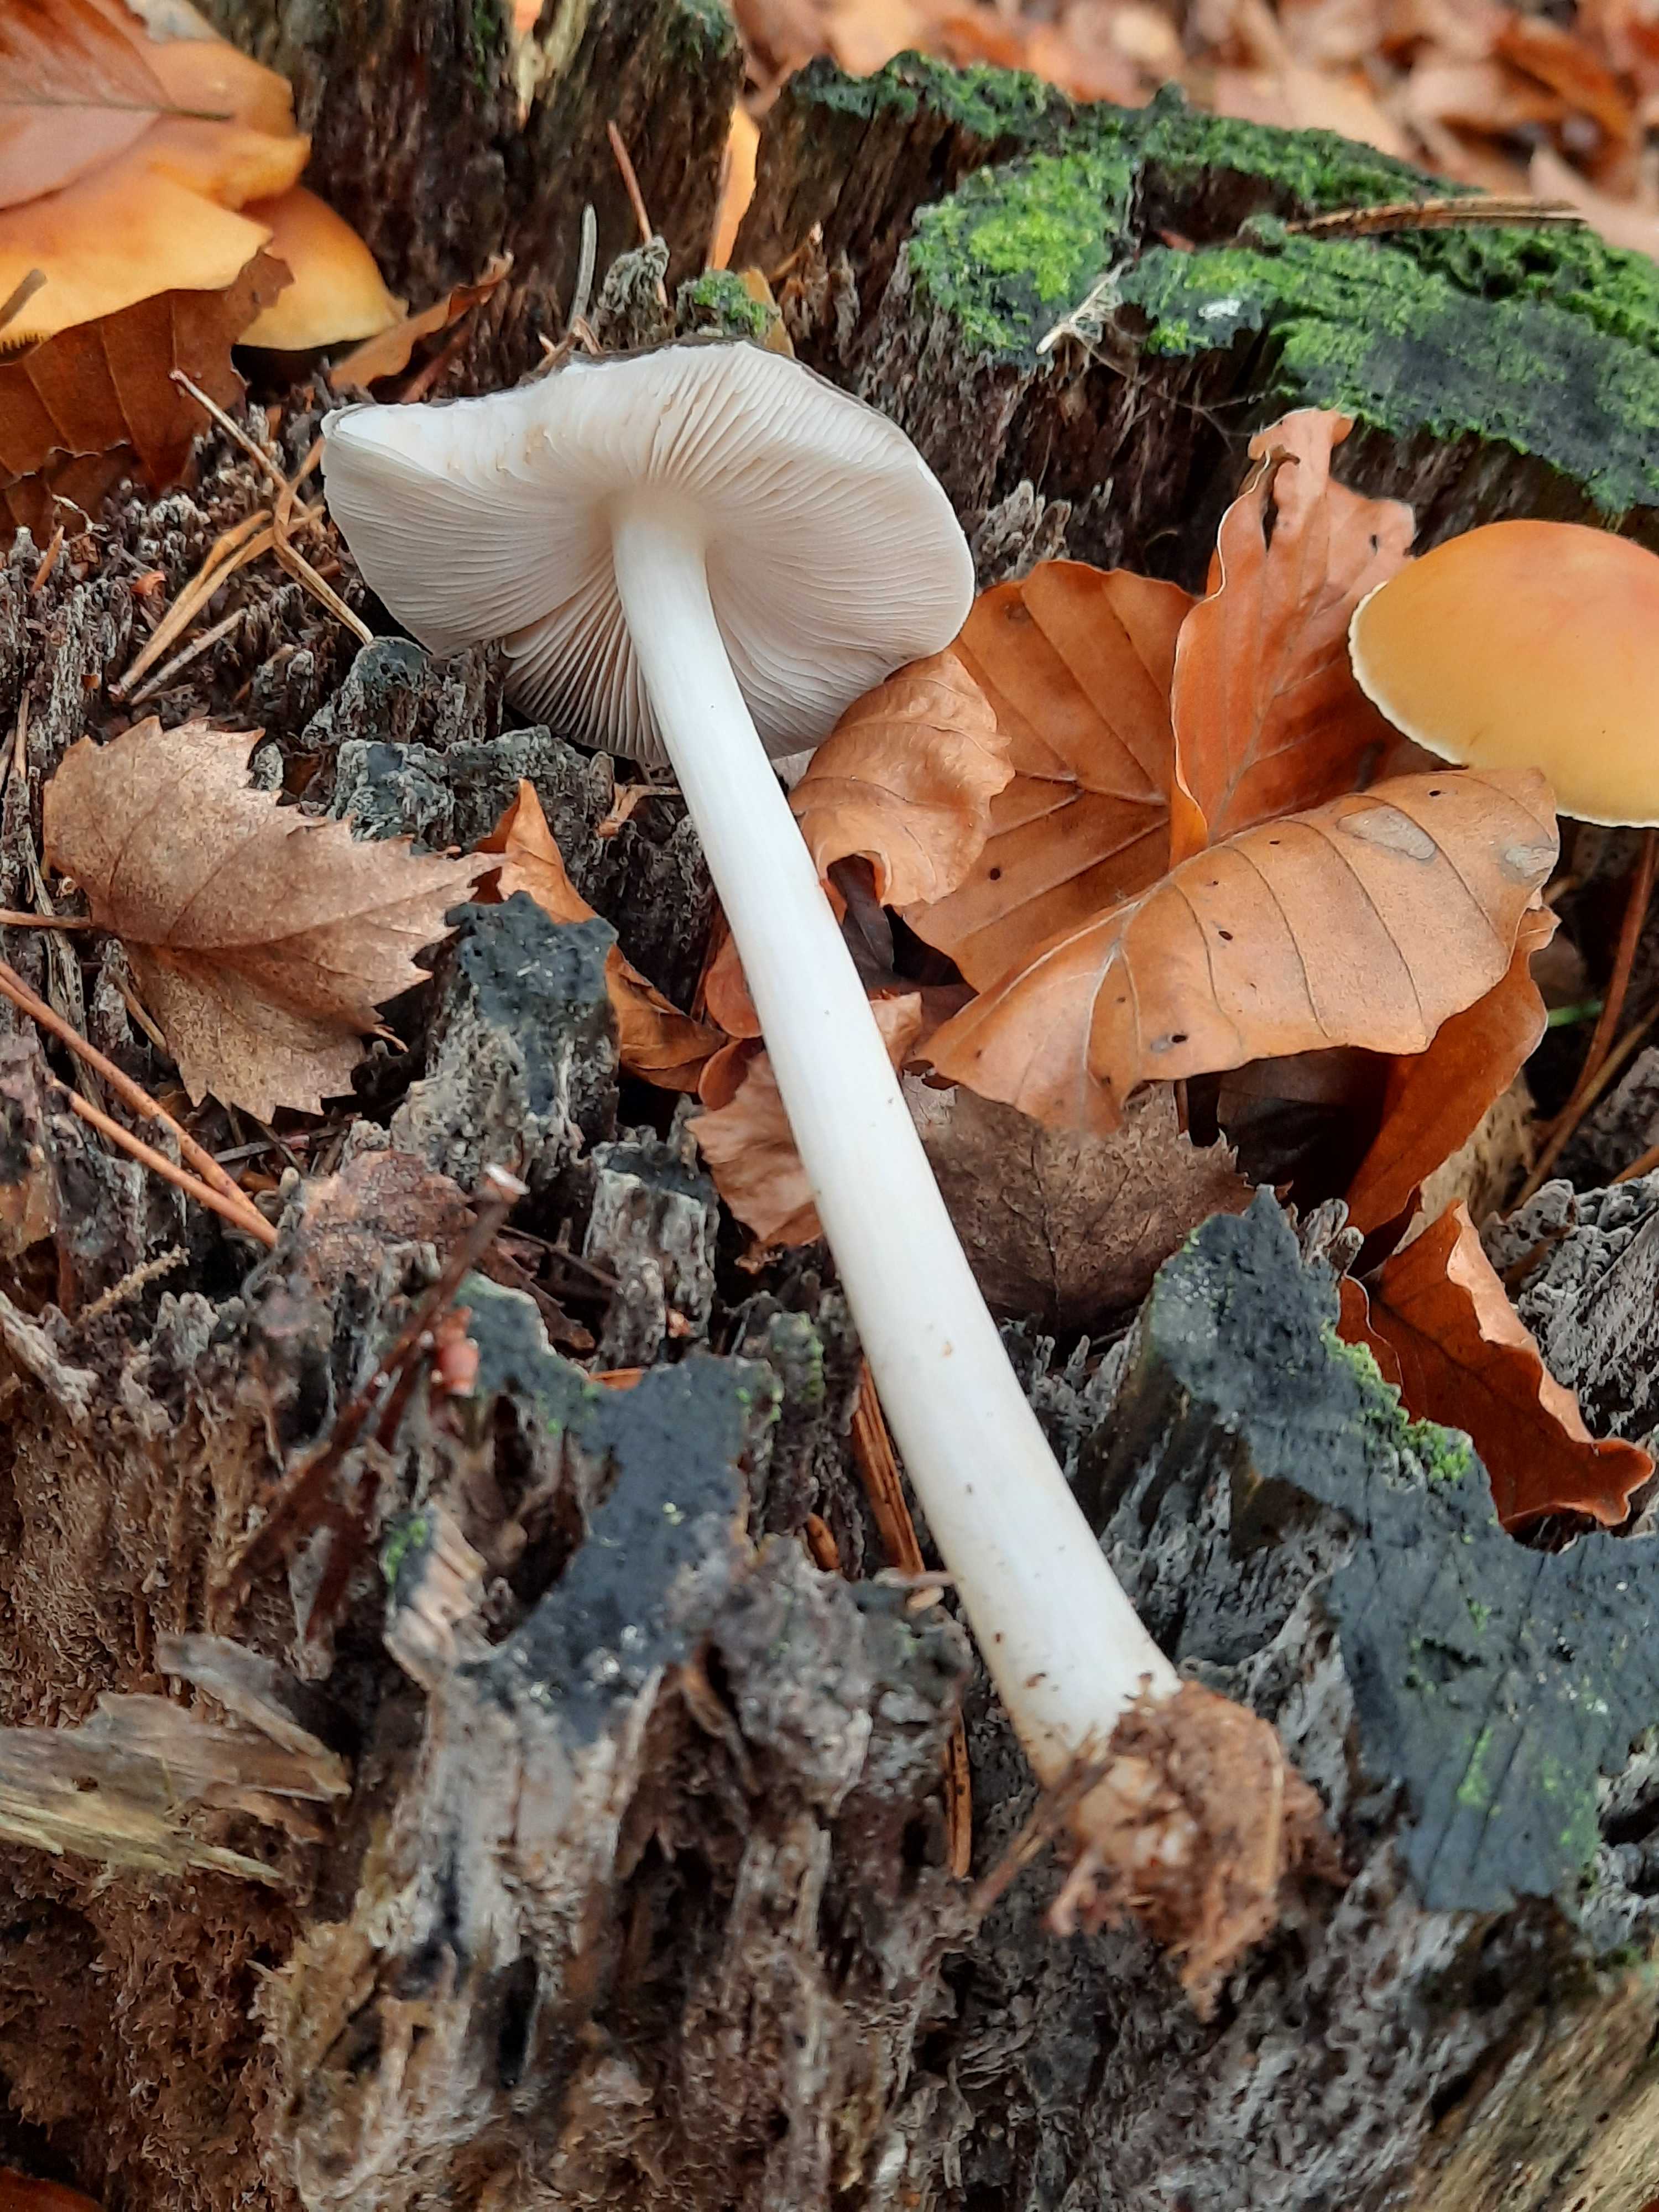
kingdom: Fungi
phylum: Basidiomycota
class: Agaricomycetes
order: Agaricales
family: Pluteaceae
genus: Pluteus
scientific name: Pluteus
